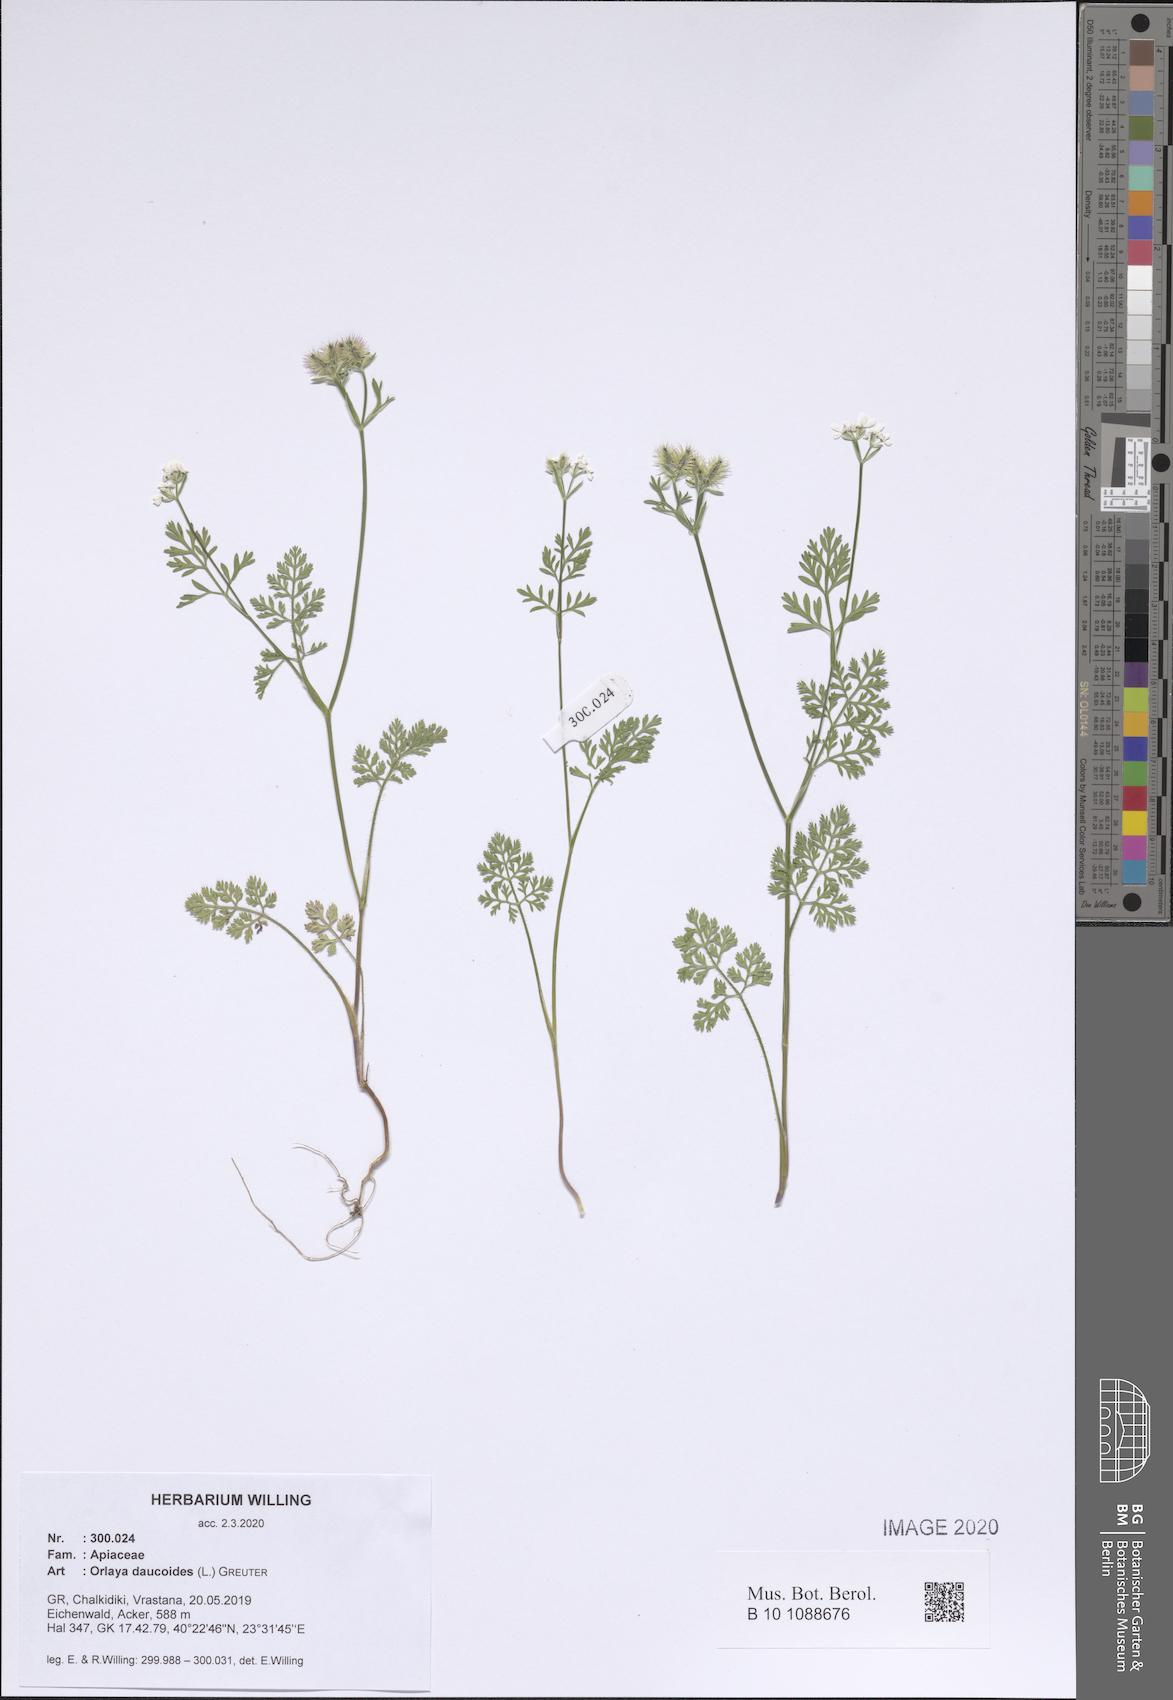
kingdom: Plantae
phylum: Tracheophyta
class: Magnoliopsida
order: Apiales
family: Apiaceae
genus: Orlaya
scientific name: Orlaya daucoides
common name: Flat-fruit orlaya
